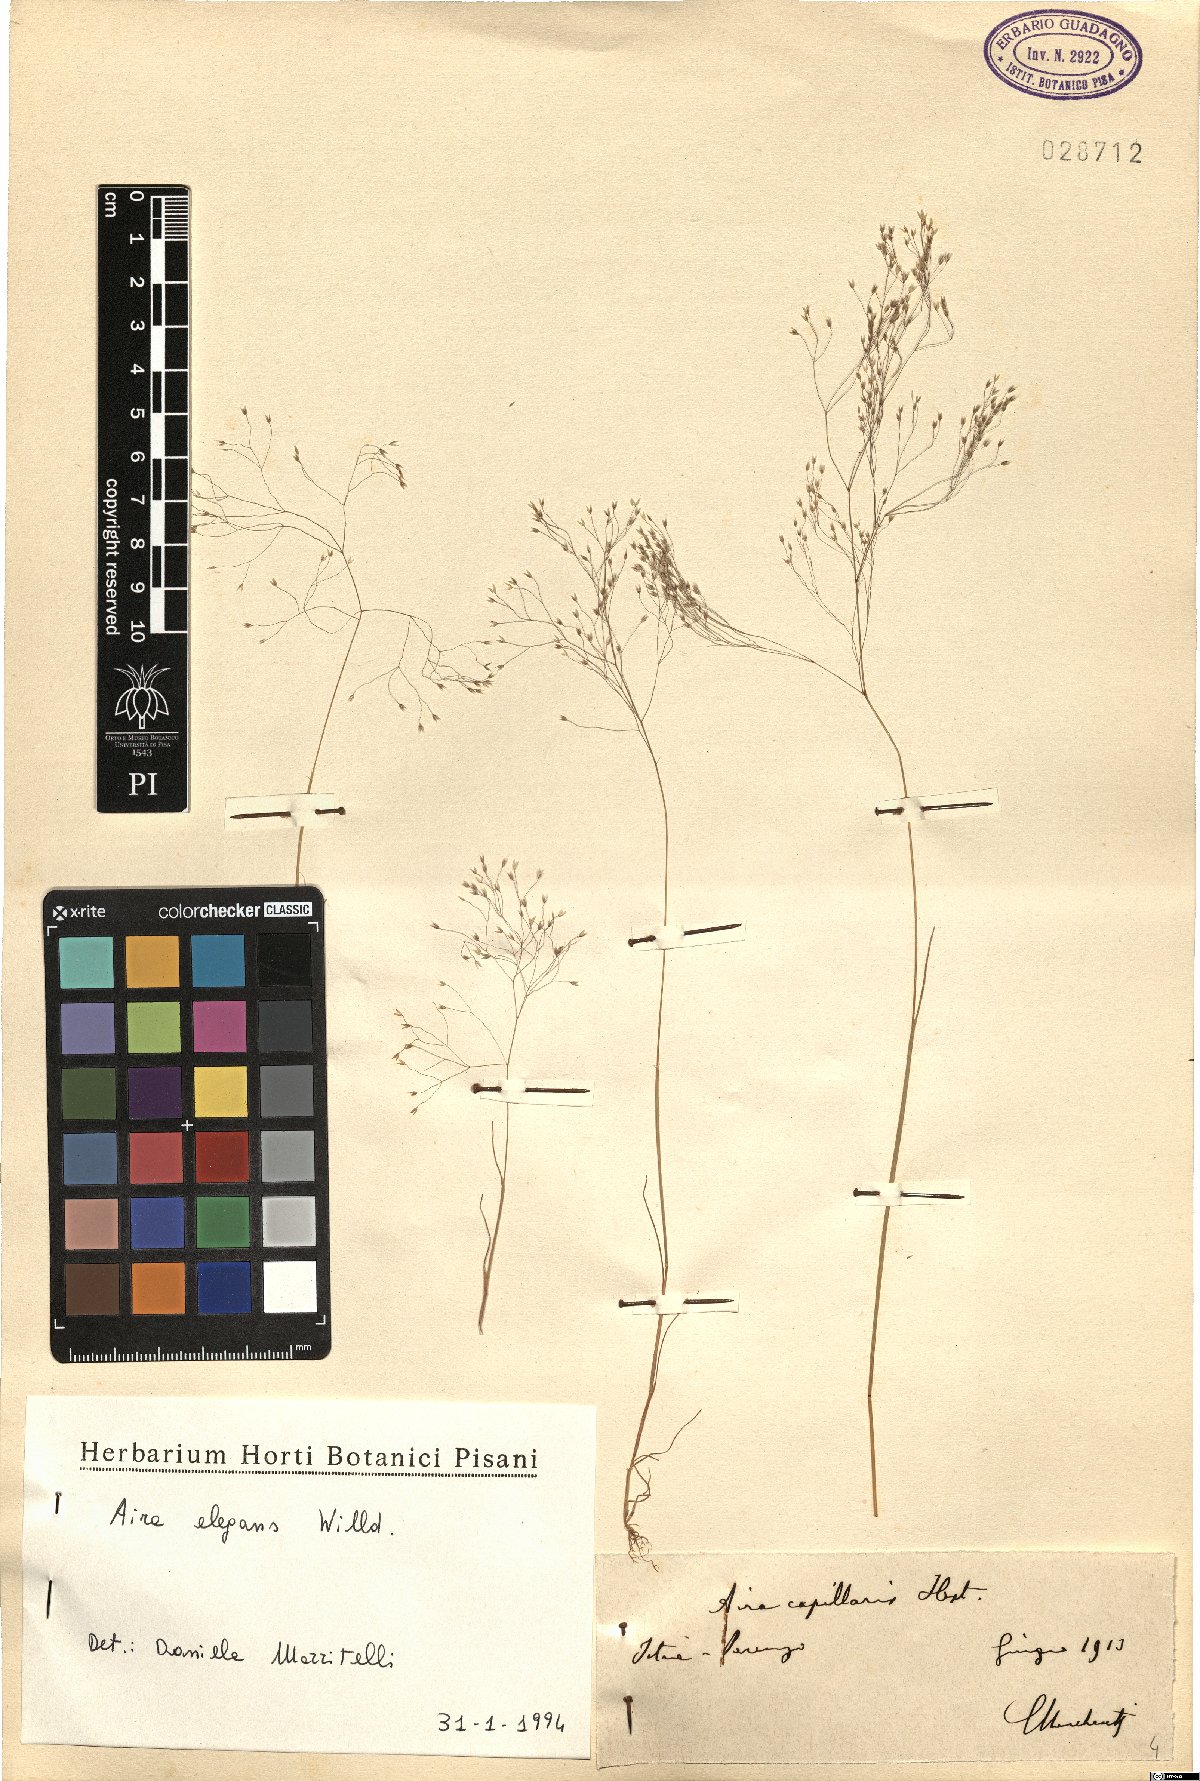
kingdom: Plantae
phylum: Tracheophyta
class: Liliopsida
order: Poales
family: Poaceae
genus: Aira
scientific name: Aira elegans
